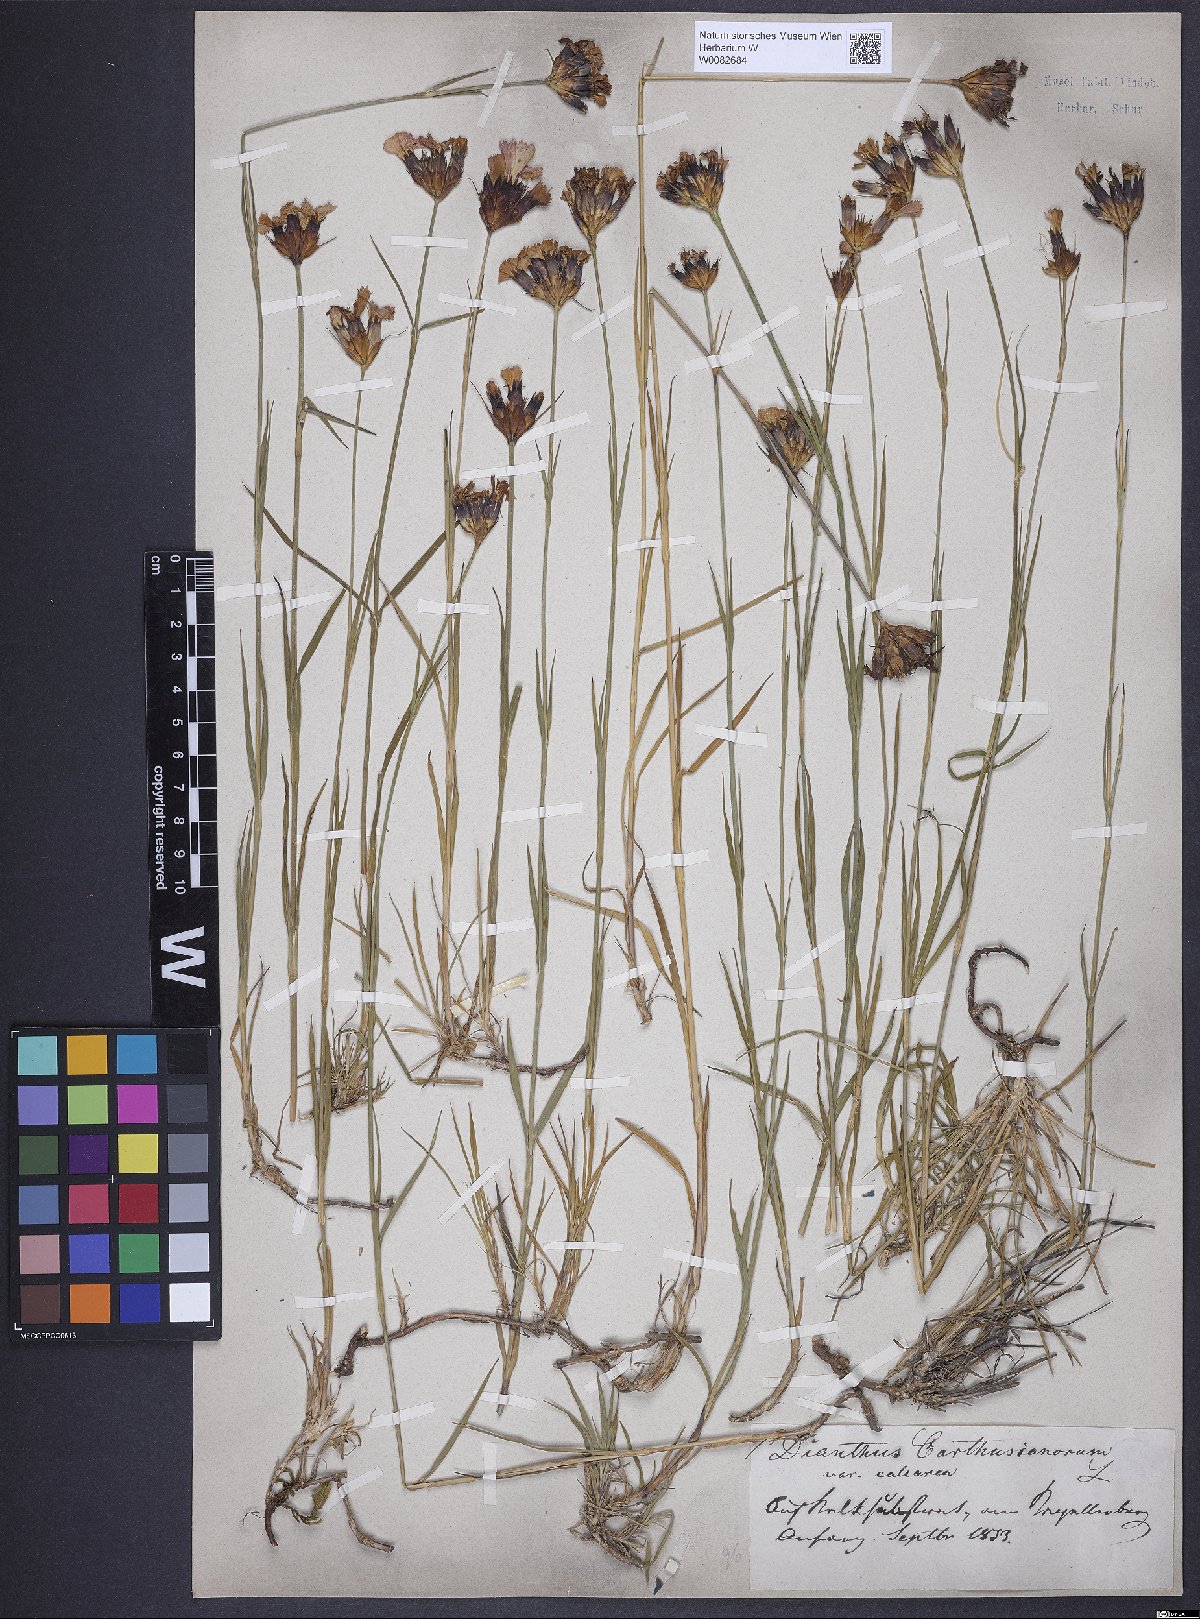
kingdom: Plantae
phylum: Tracheophyta
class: Magnoliopsida
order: Caryophyllales
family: Caryophyllaceae
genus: Dianthus
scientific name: Dianthus carthusianorum
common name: Carthusian pink
